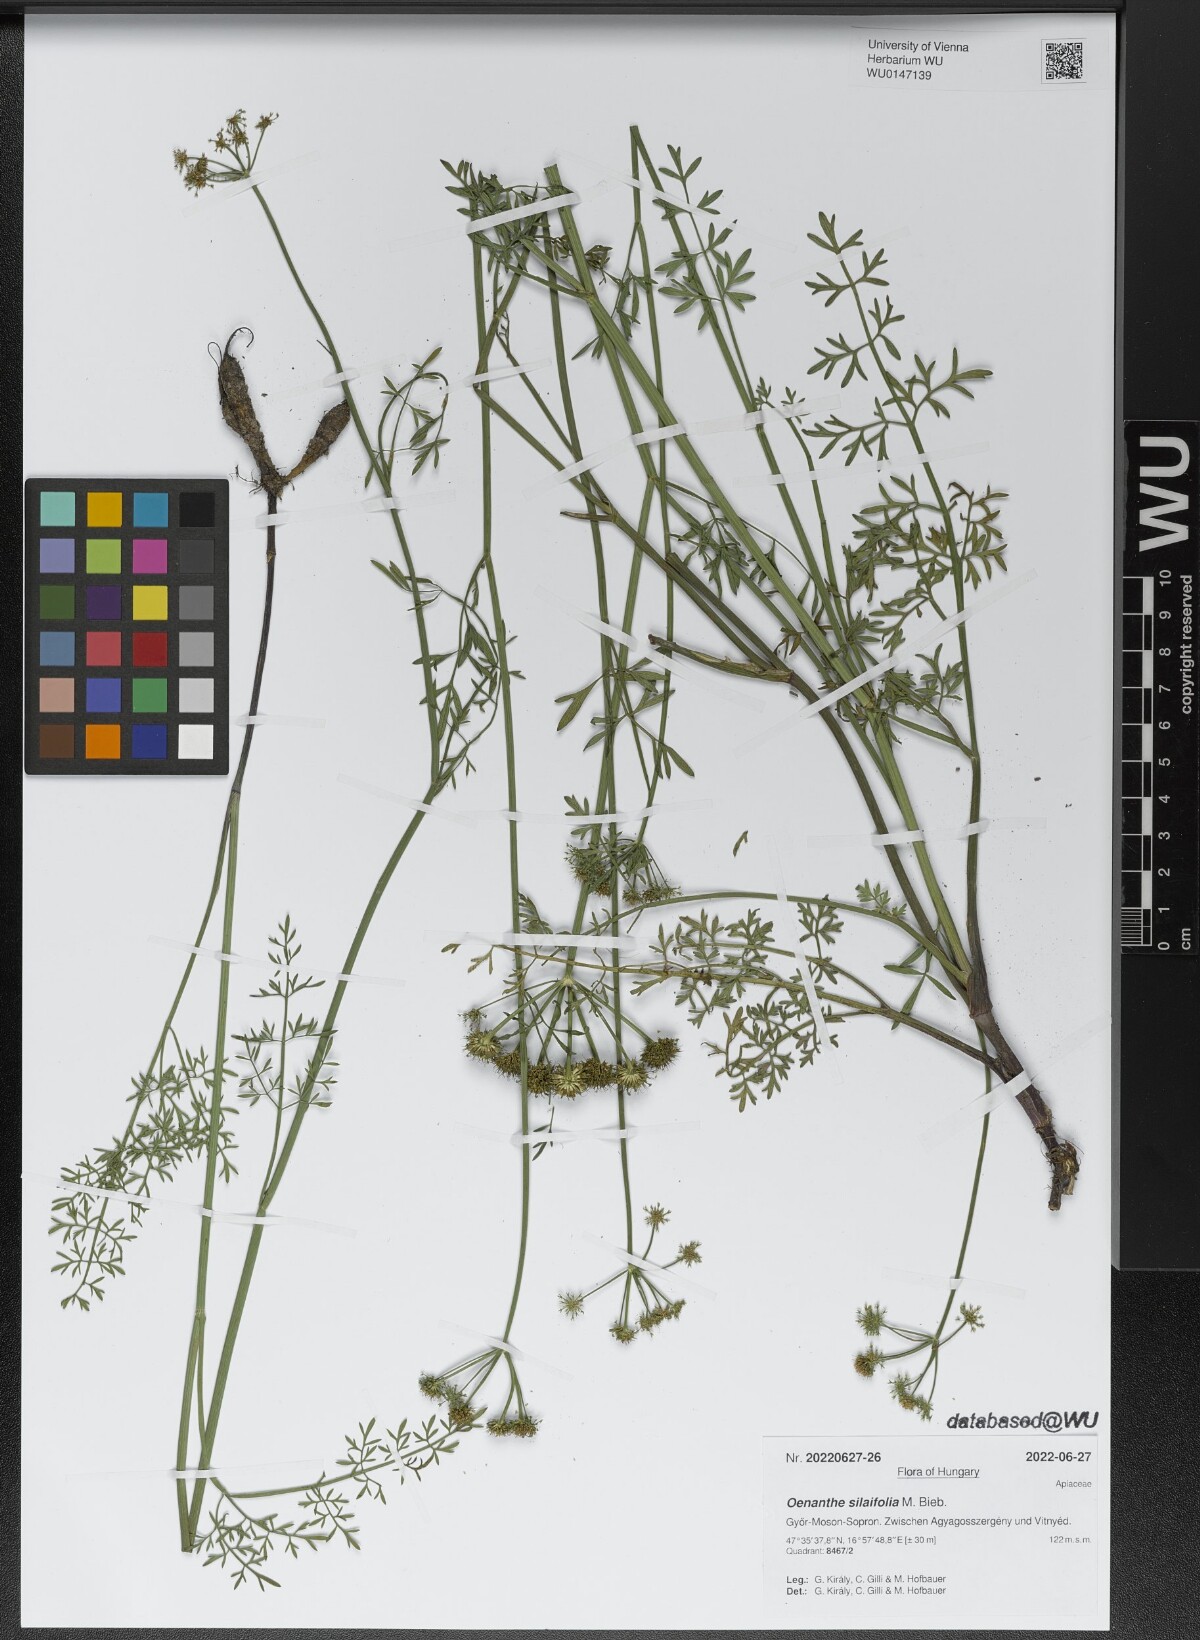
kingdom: Plantae
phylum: Tracheophyta
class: Magnoliopsida
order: Apiales
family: Apiaceae
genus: Oenanthe
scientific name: Oenanthe silaifolia
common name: Narrow-leaved water-dropwort
